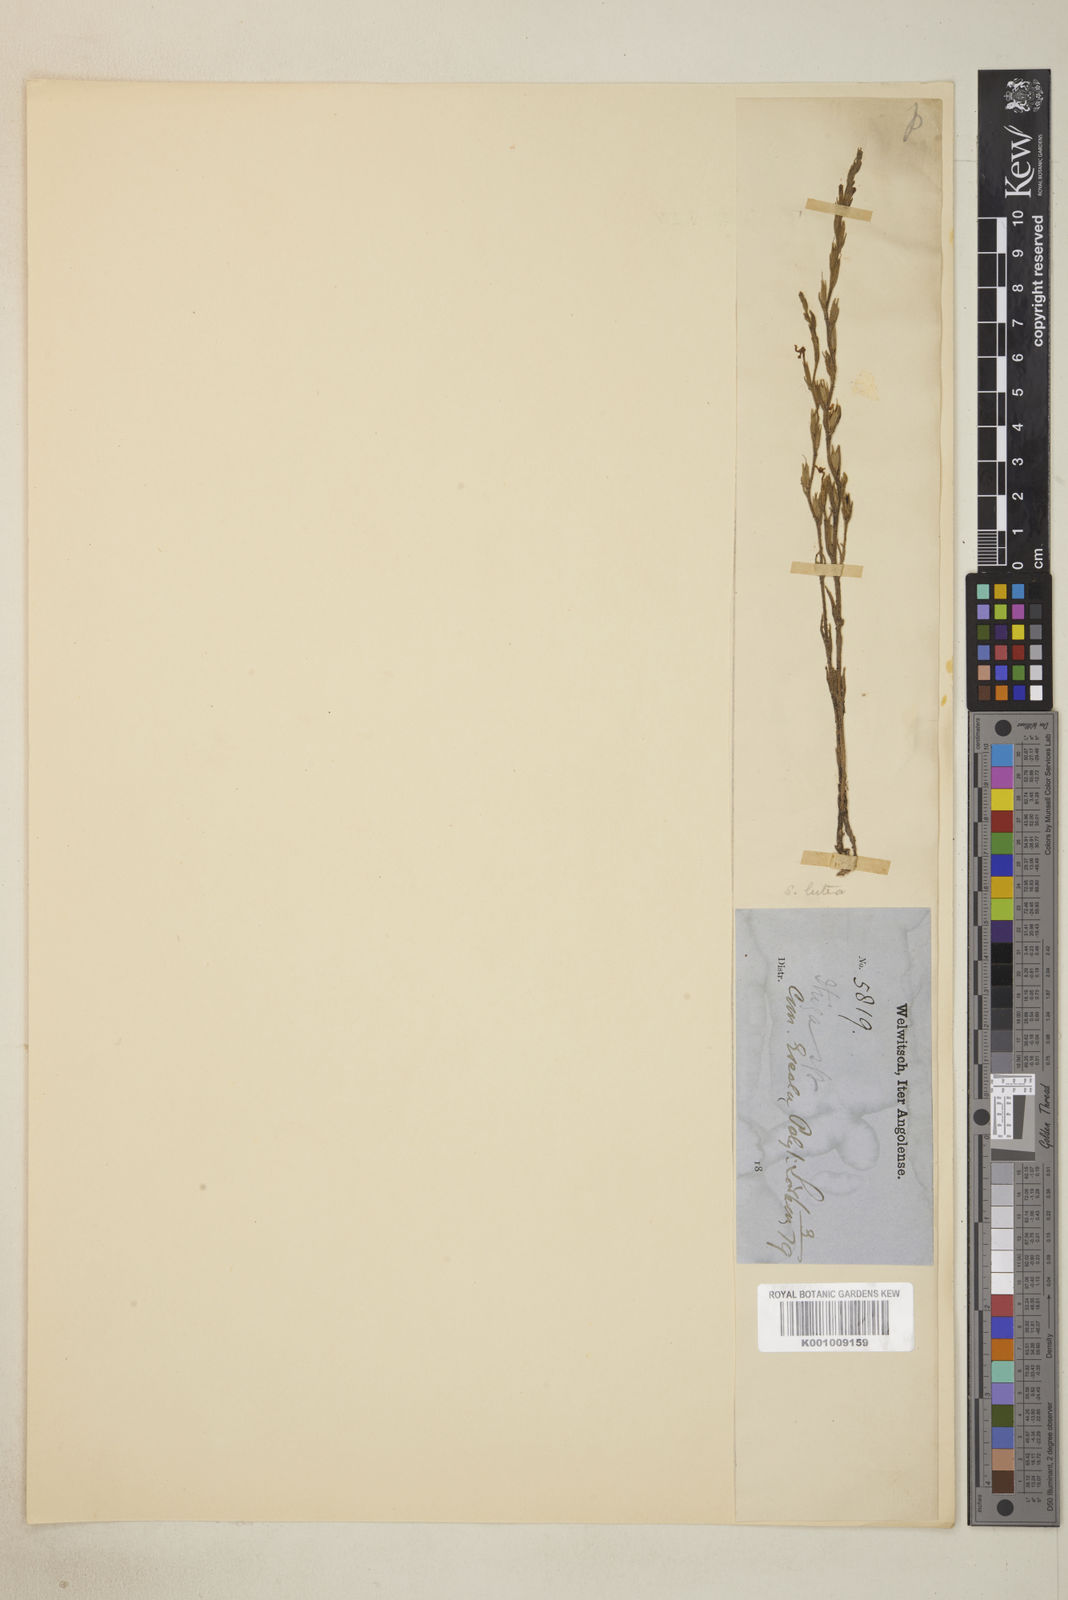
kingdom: Plantae
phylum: Tracheophyta
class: Magnoliopsida
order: Lamiales
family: Orobanchaceae
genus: Striga
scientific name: Striga asiatica
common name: Asiatic witchweed
